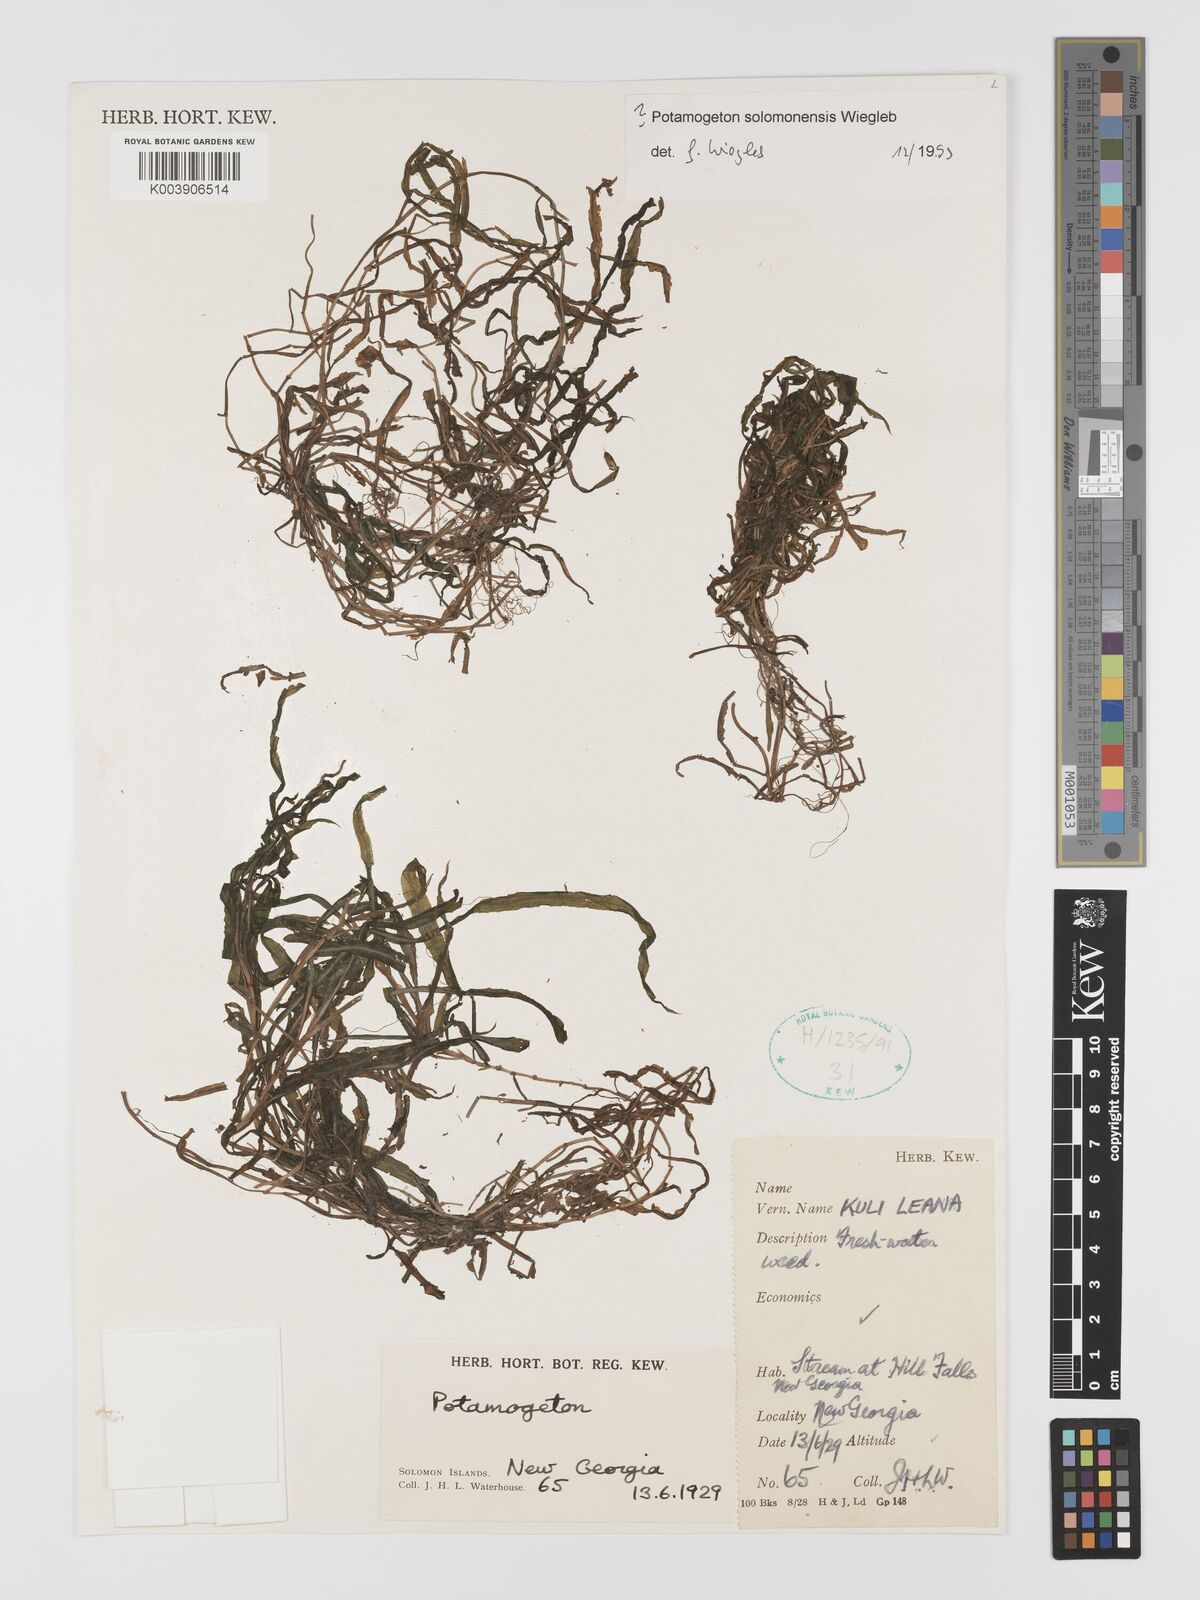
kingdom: Plantae
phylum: Tracheophyta
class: Liliopsida
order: Alismatales
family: Potamogetonaceae
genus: Potamogeton
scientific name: Potamogeton solomonensis
